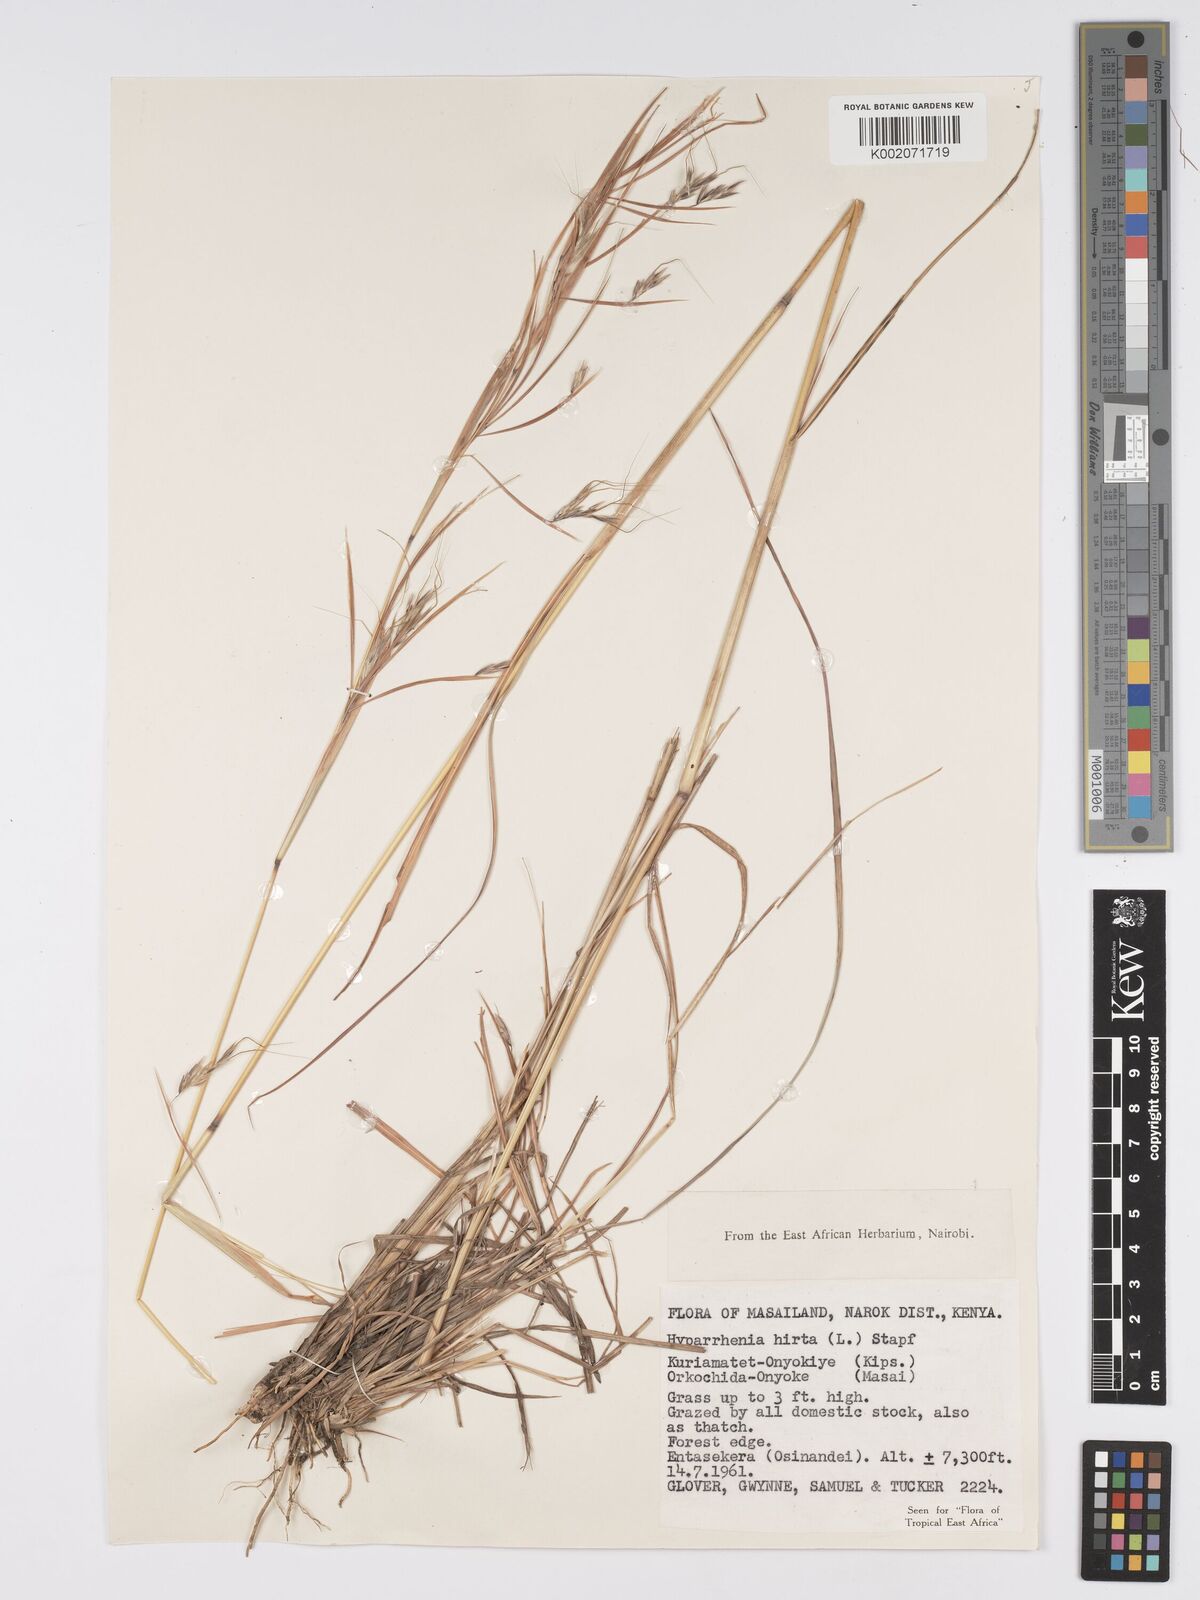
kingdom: Plantae
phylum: Tracheophyta
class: Liliopsida
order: Poales
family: Poaceae
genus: Hyparrhenia
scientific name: Hyparrhenia hirta
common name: Thatching grass
